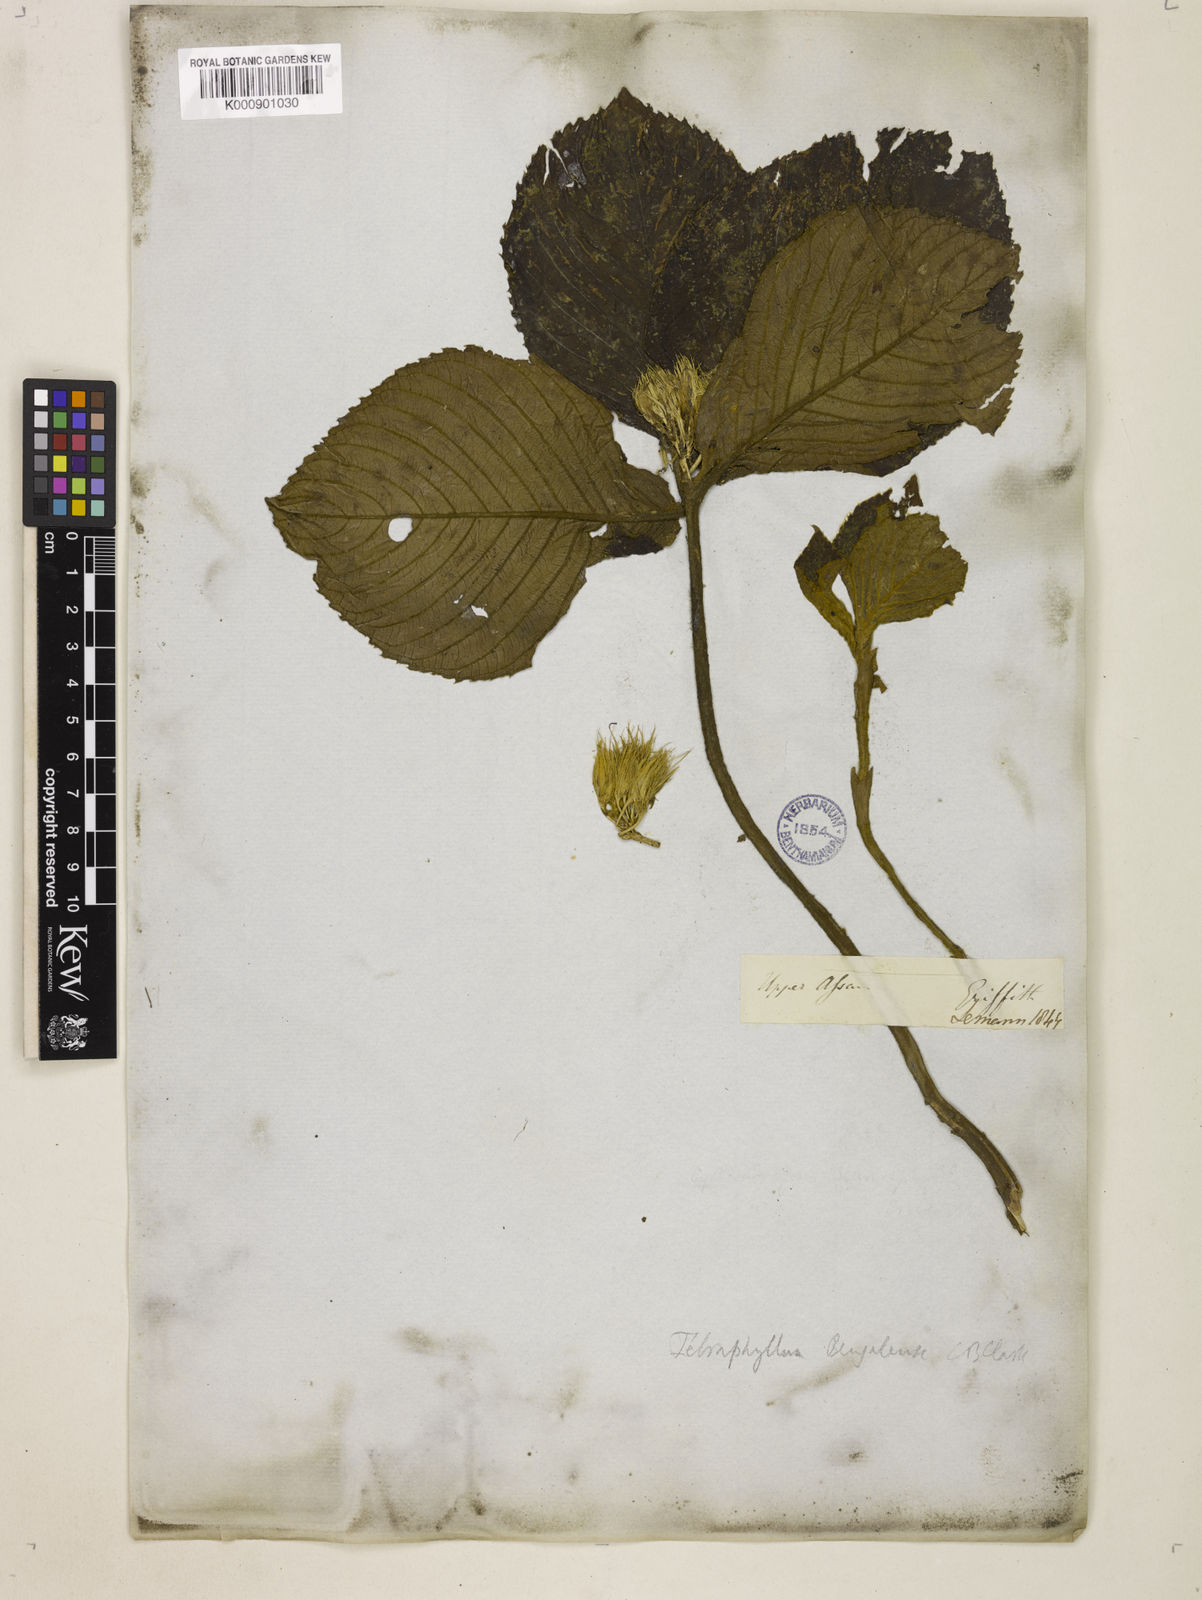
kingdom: Plantae
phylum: Tracheophyta
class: Magnoliopsida
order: Lamiales
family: Gesneriaceae
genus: Tetraphylloides
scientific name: Tetraphylloides bengalensis
